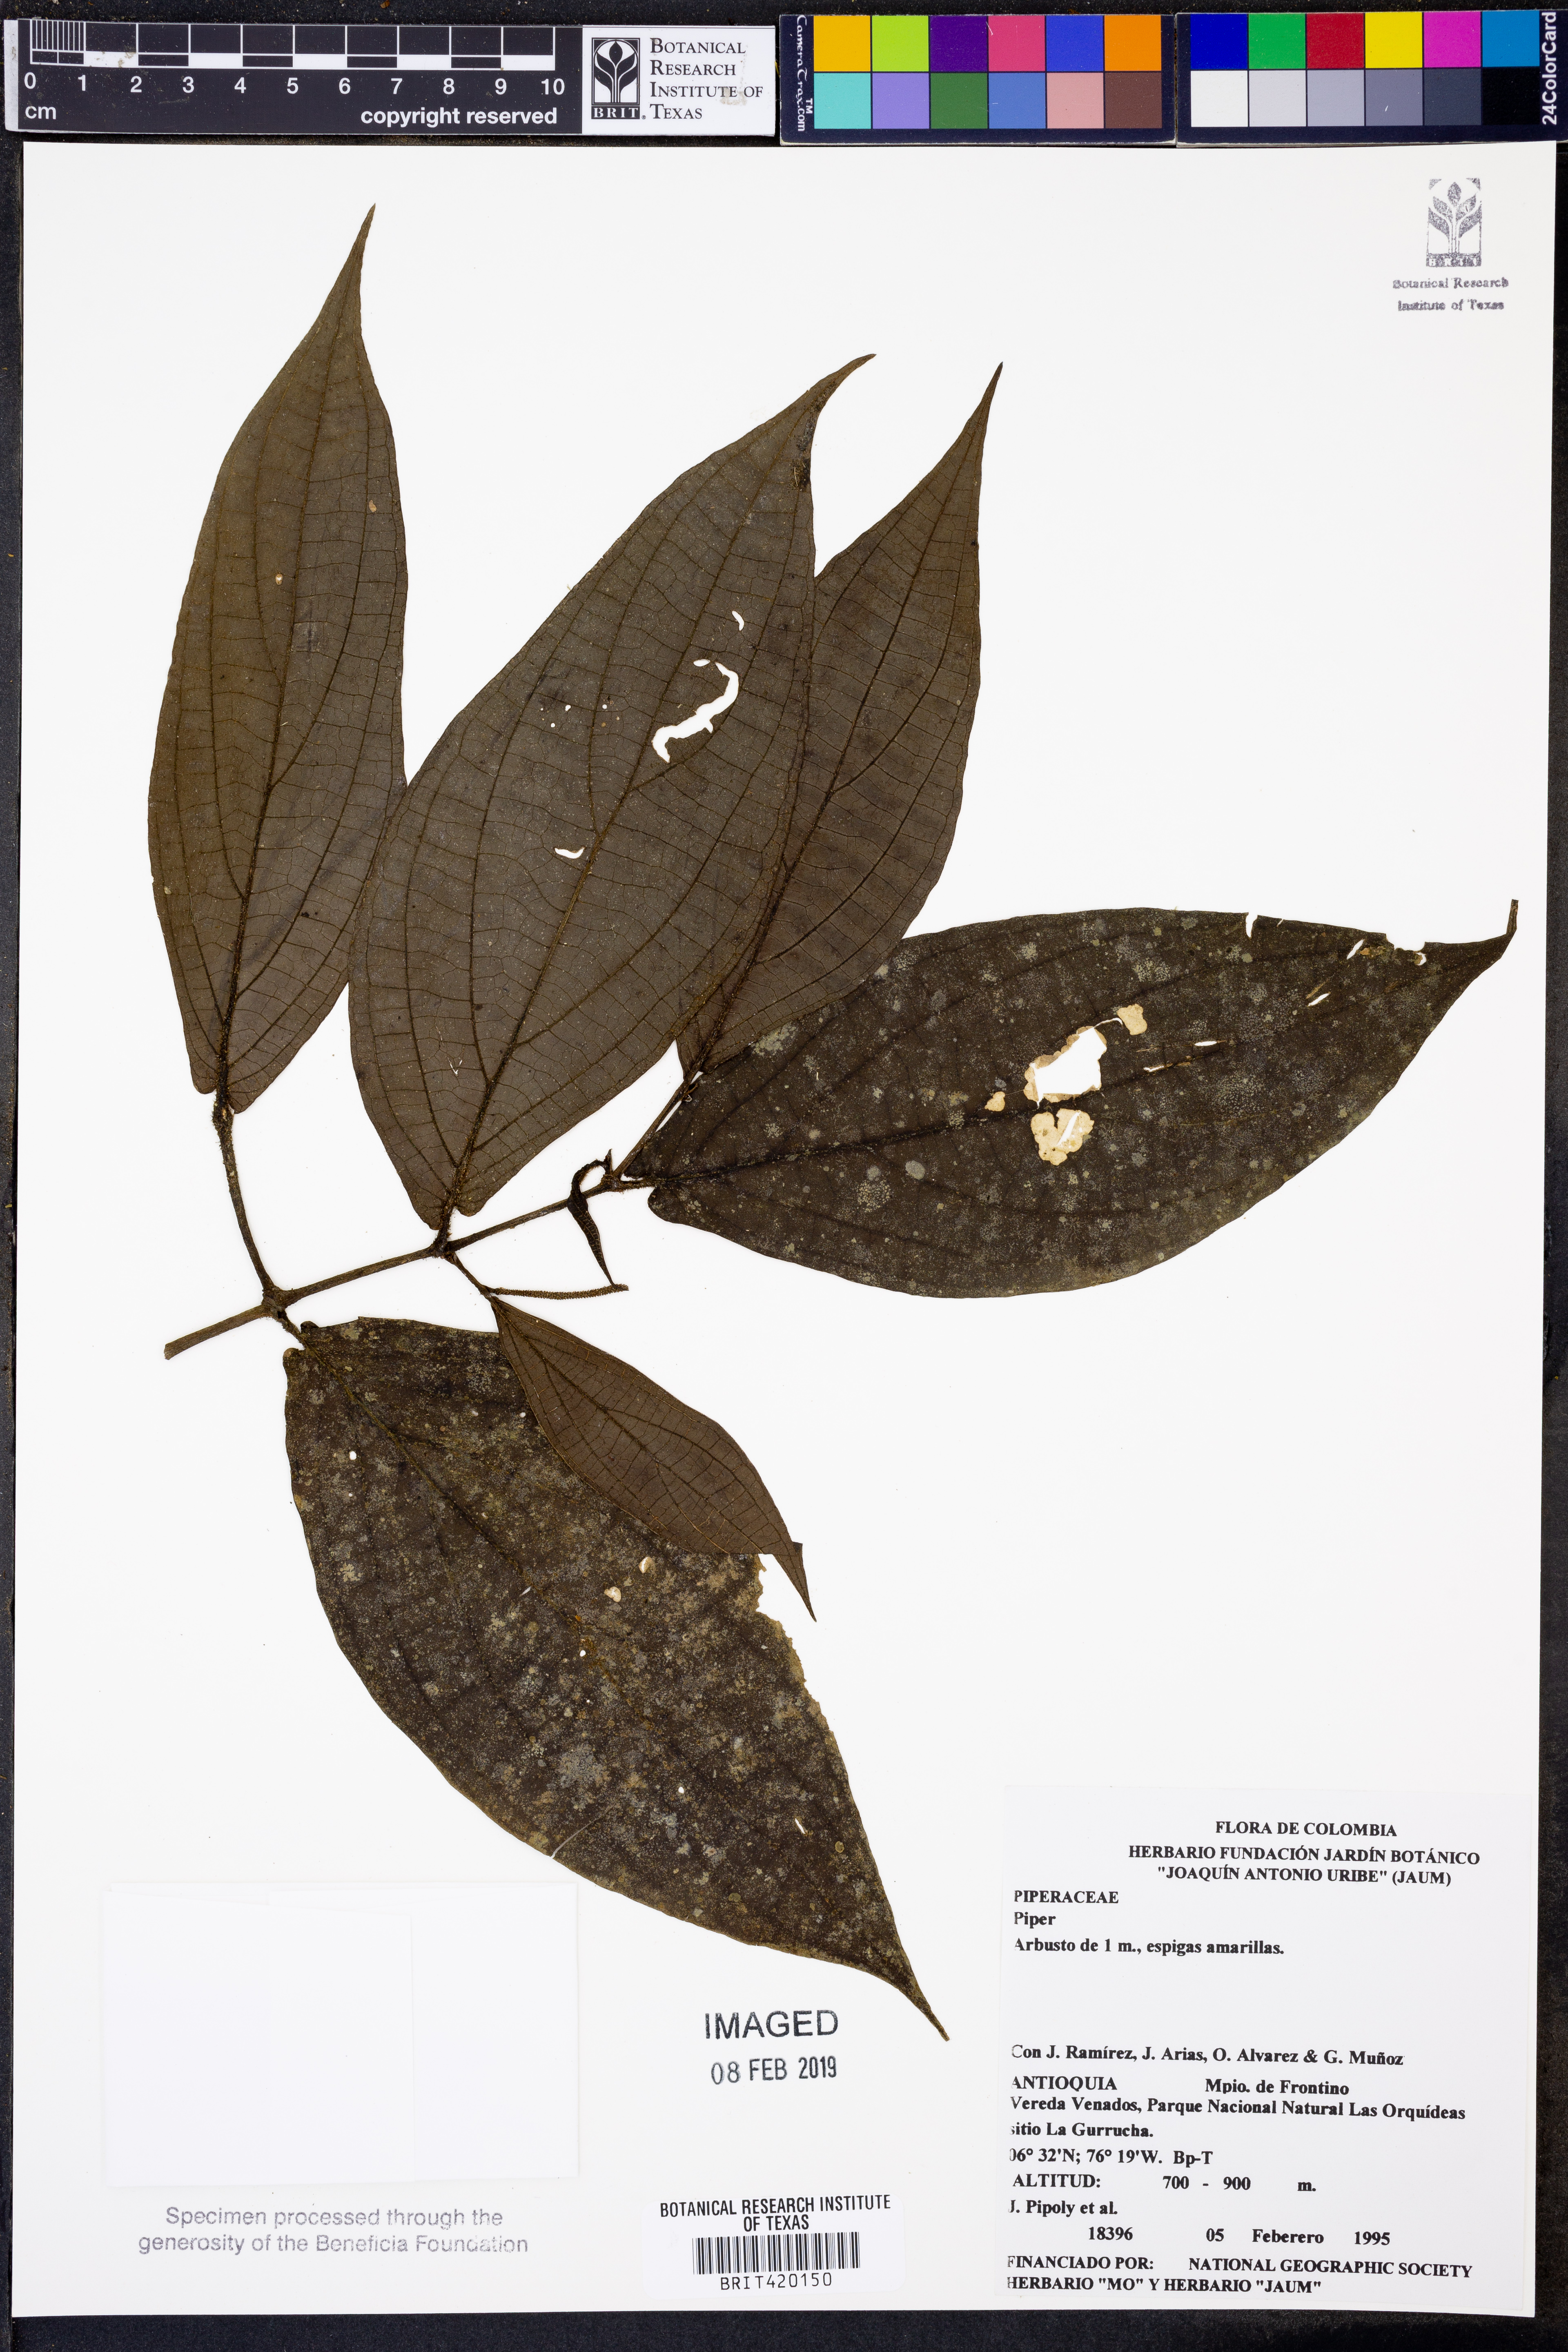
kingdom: Plantae
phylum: Tracheophyta
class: Magnoliopsida
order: Piperales
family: Piperaceae
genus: Piper
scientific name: Piper
